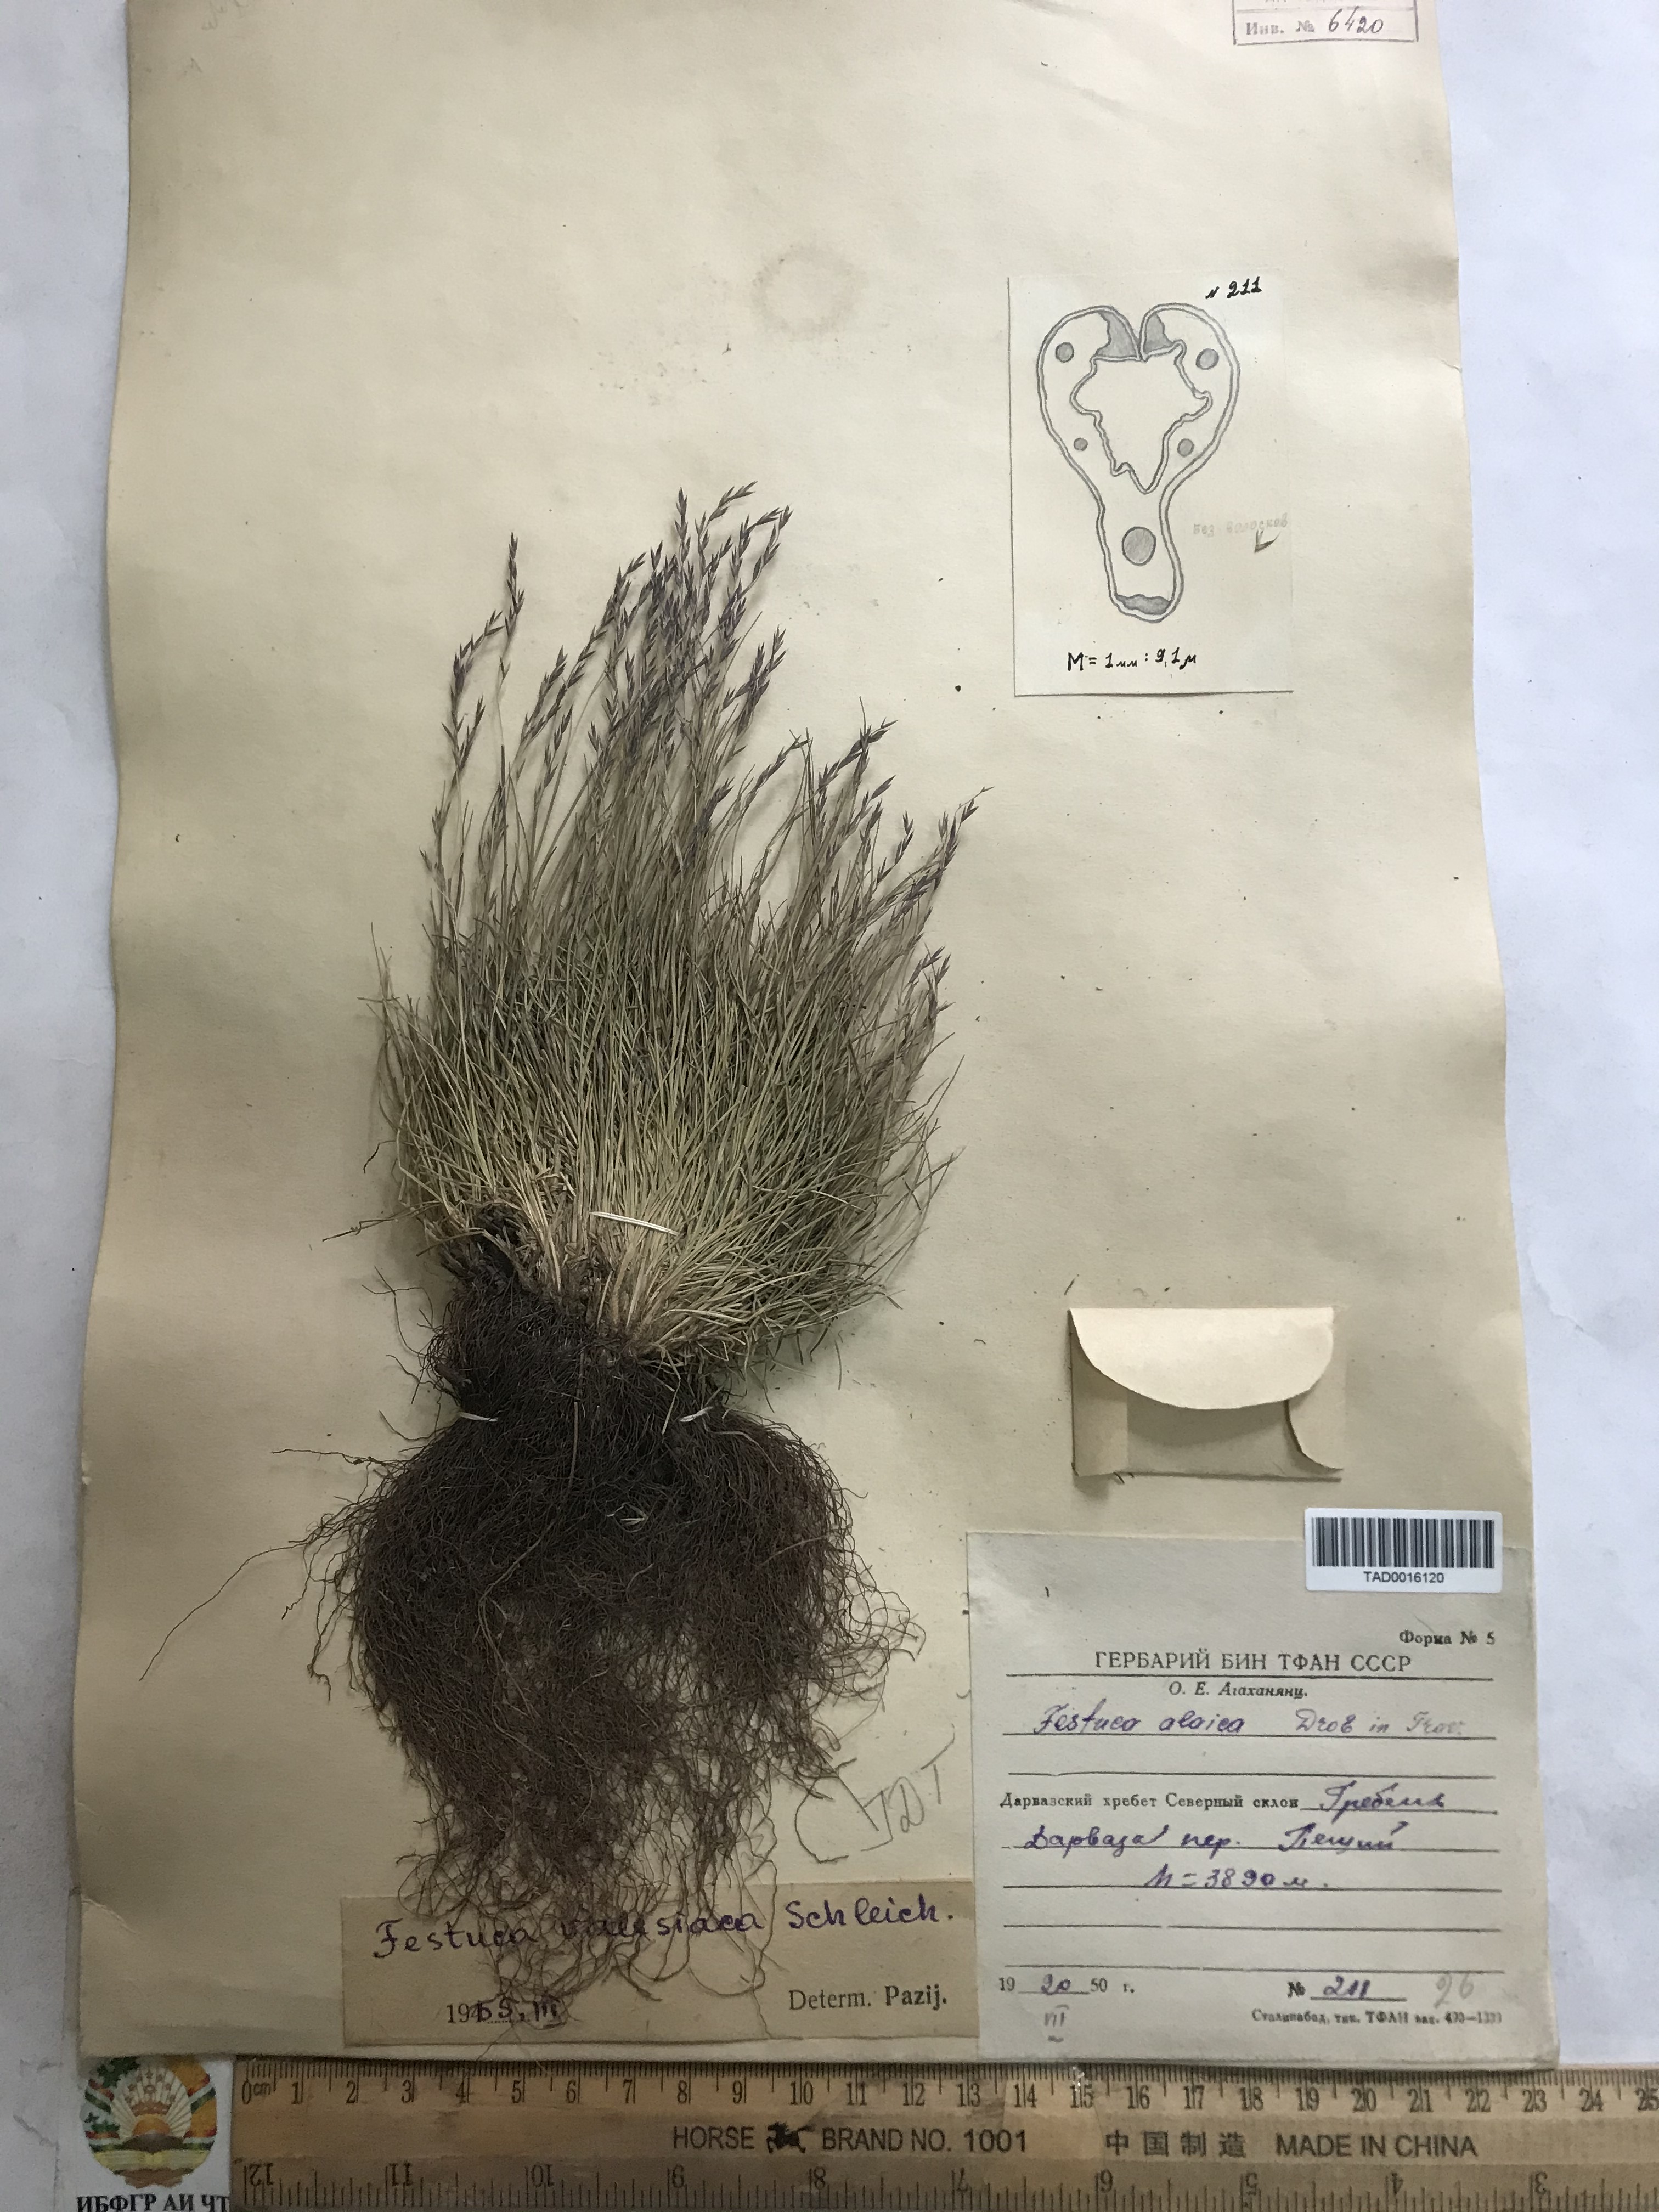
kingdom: Plantae
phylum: Tracheophyta
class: Liliopsida
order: Poales
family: Poaceae
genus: Festuca
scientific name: Festuca valesiaca
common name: Volga fescue
